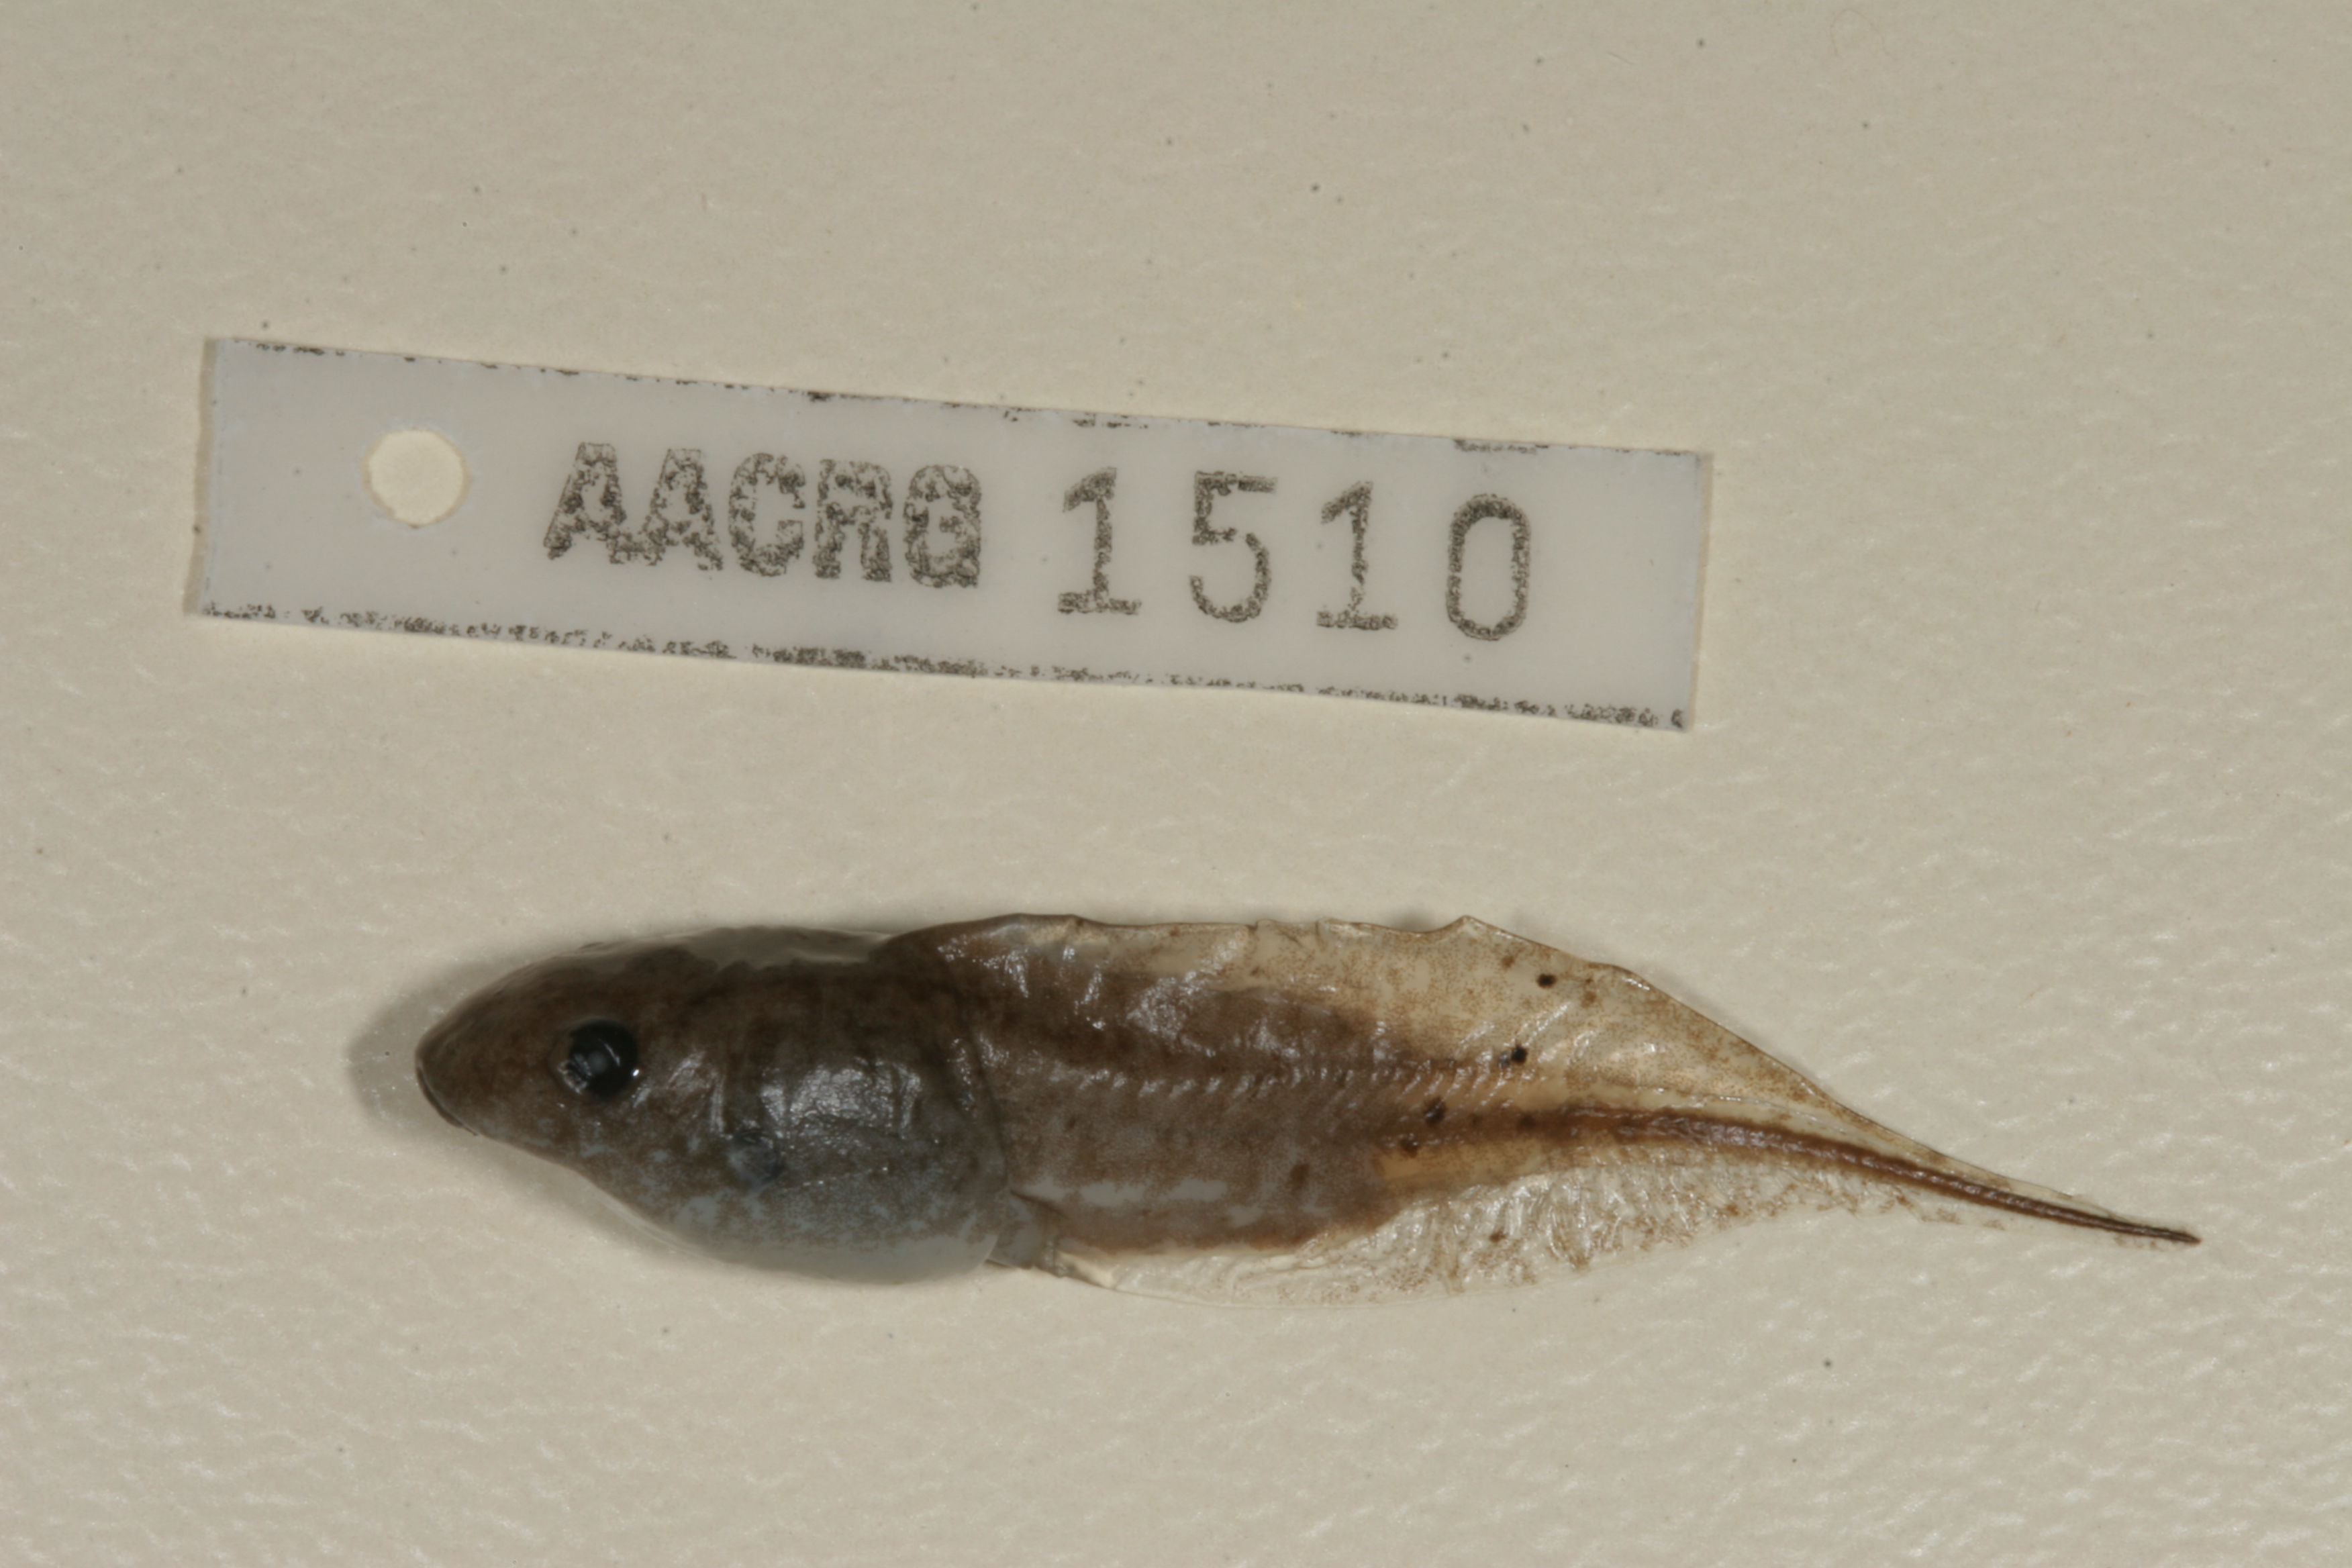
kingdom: Animalia
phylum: Chordata
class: Amphibia
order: Anura
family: Hemisotidae
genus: Hemisus
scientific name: Hemisus marmoratus
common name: Mottled shovel-nosed frog
